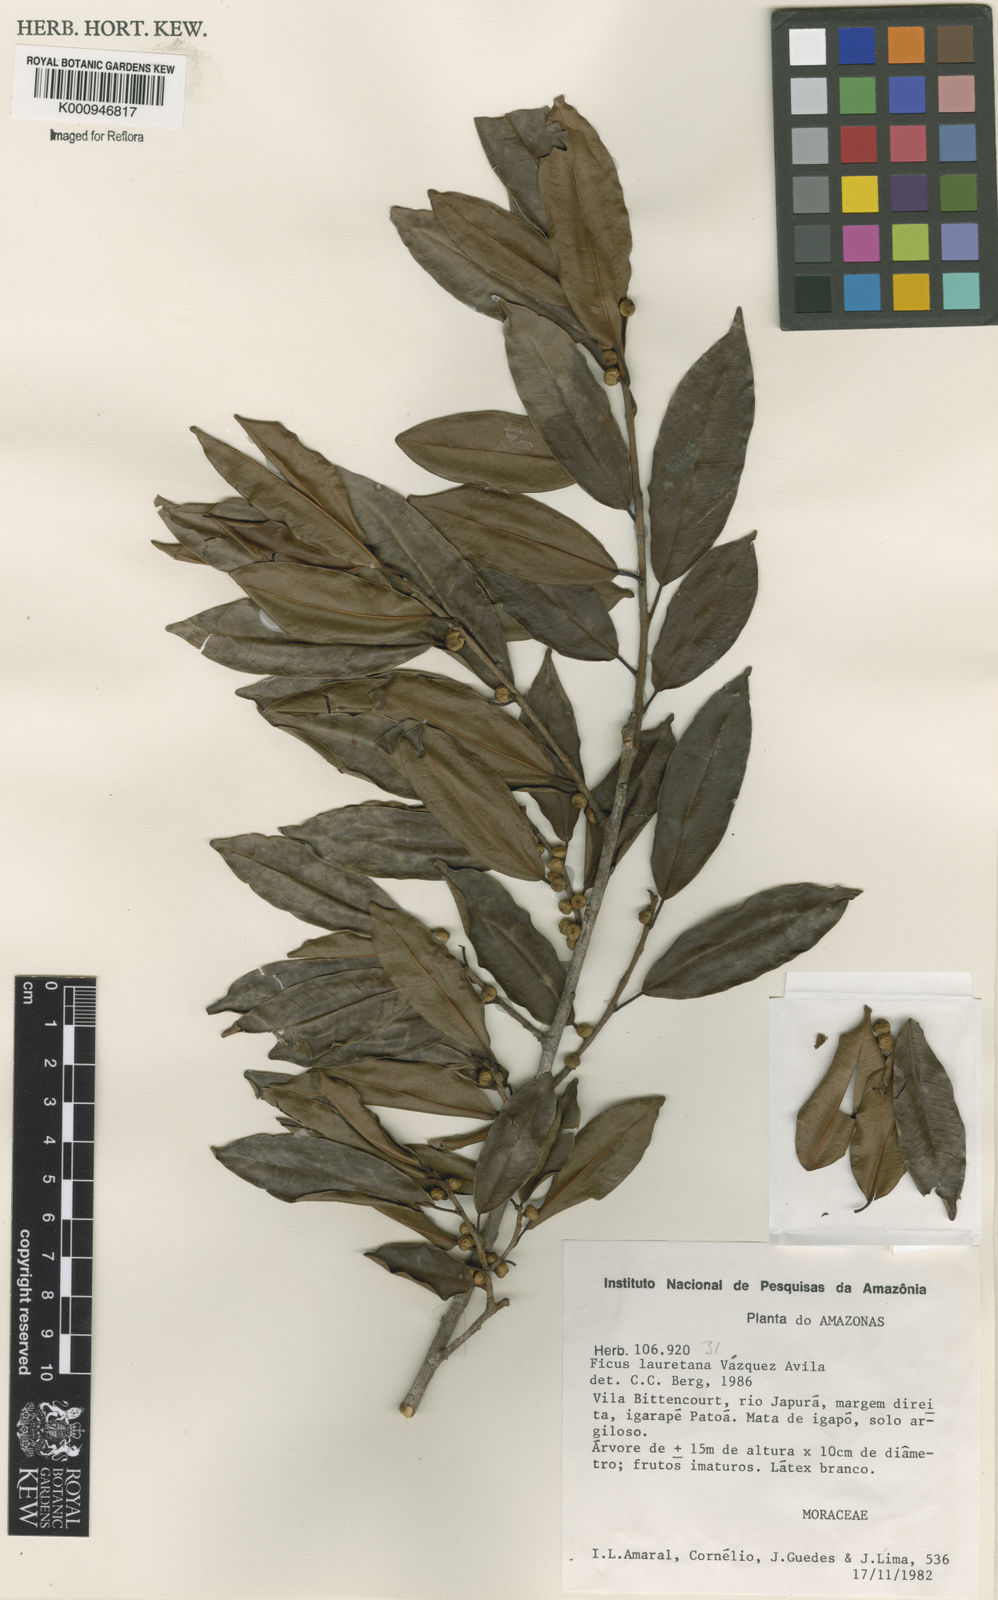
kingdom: Plantae
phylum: Tracheophyta
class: Magnoliopsida
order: Rosales
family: Moraceae
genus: Ficus
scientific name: Ficus lauretana
